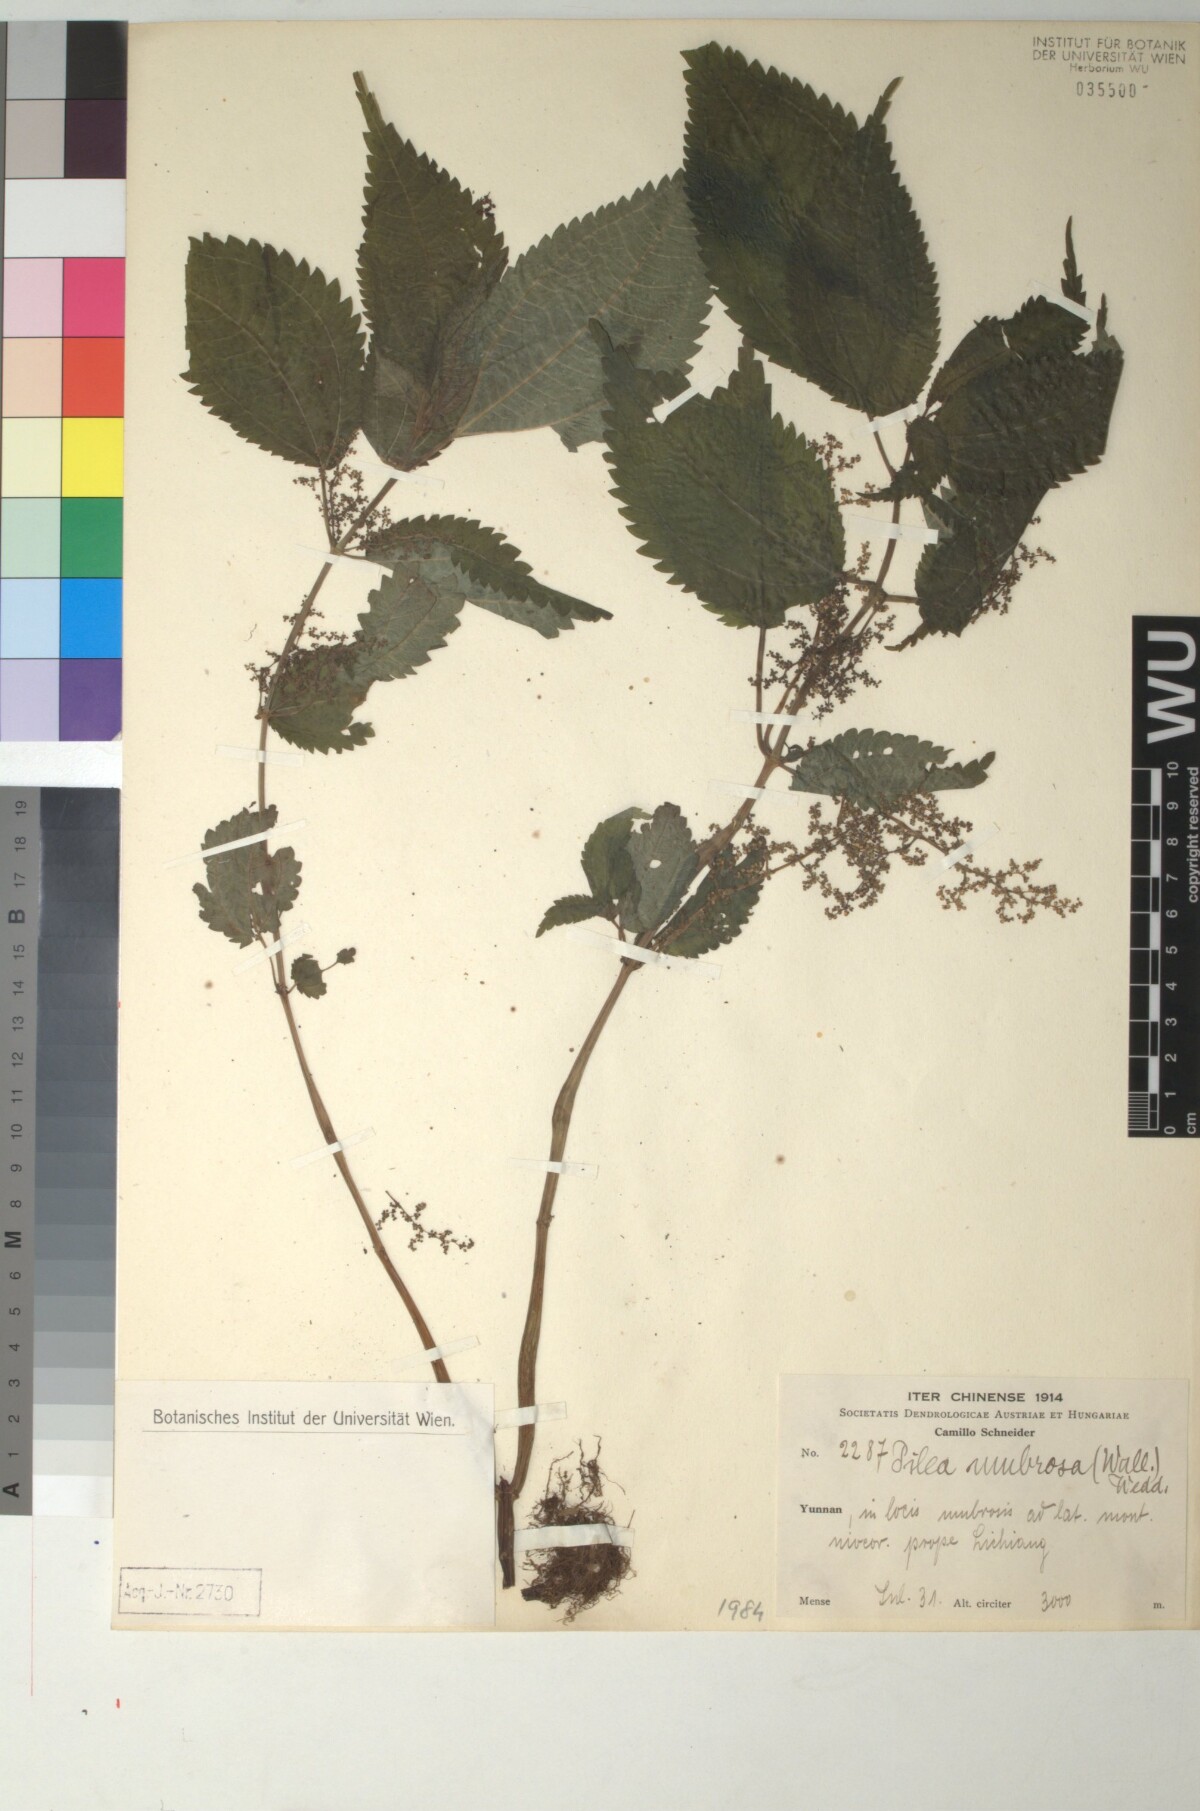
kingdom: Plantae
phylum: Tracheophyta
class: Magnoliopsida
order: Rosales
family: Urticaceae
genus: Pilea
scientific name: Pilea umbrosa
